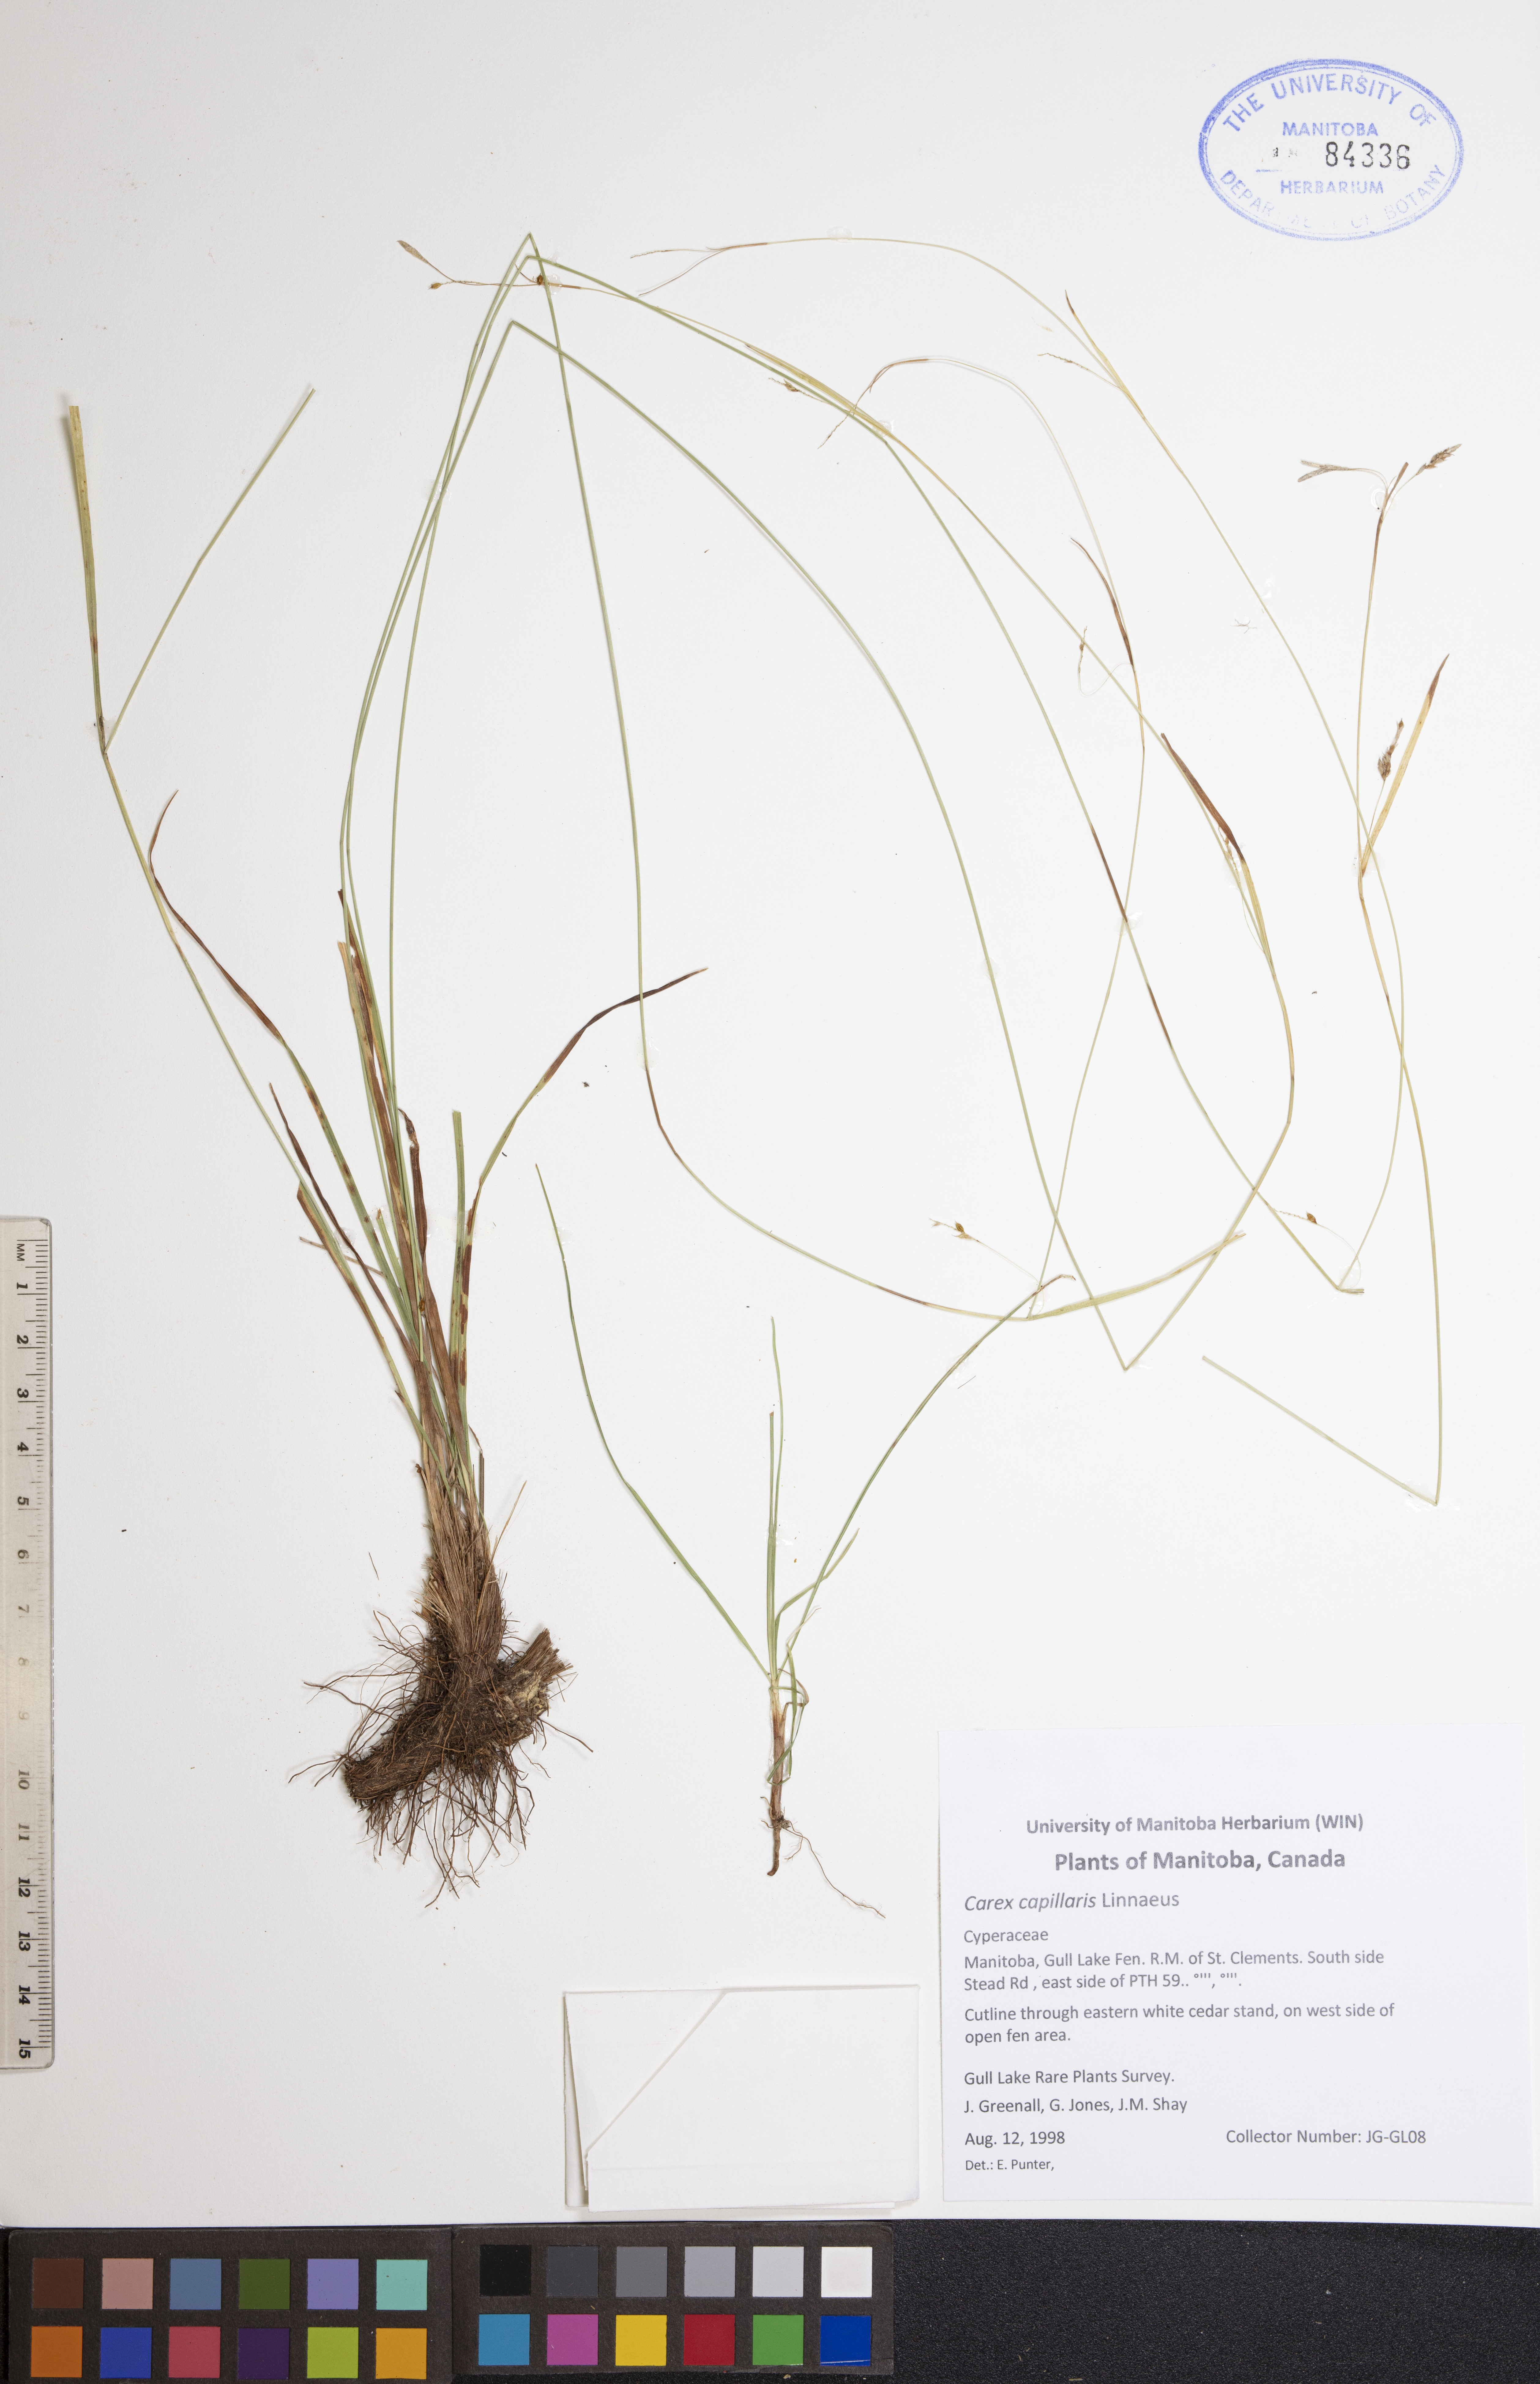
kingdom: Plantae
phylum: Tracheophyta
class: Liliopsida
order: Poales
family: Cyperaceae
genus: Carex
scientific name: Carex capillaris
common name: Hair sedge
